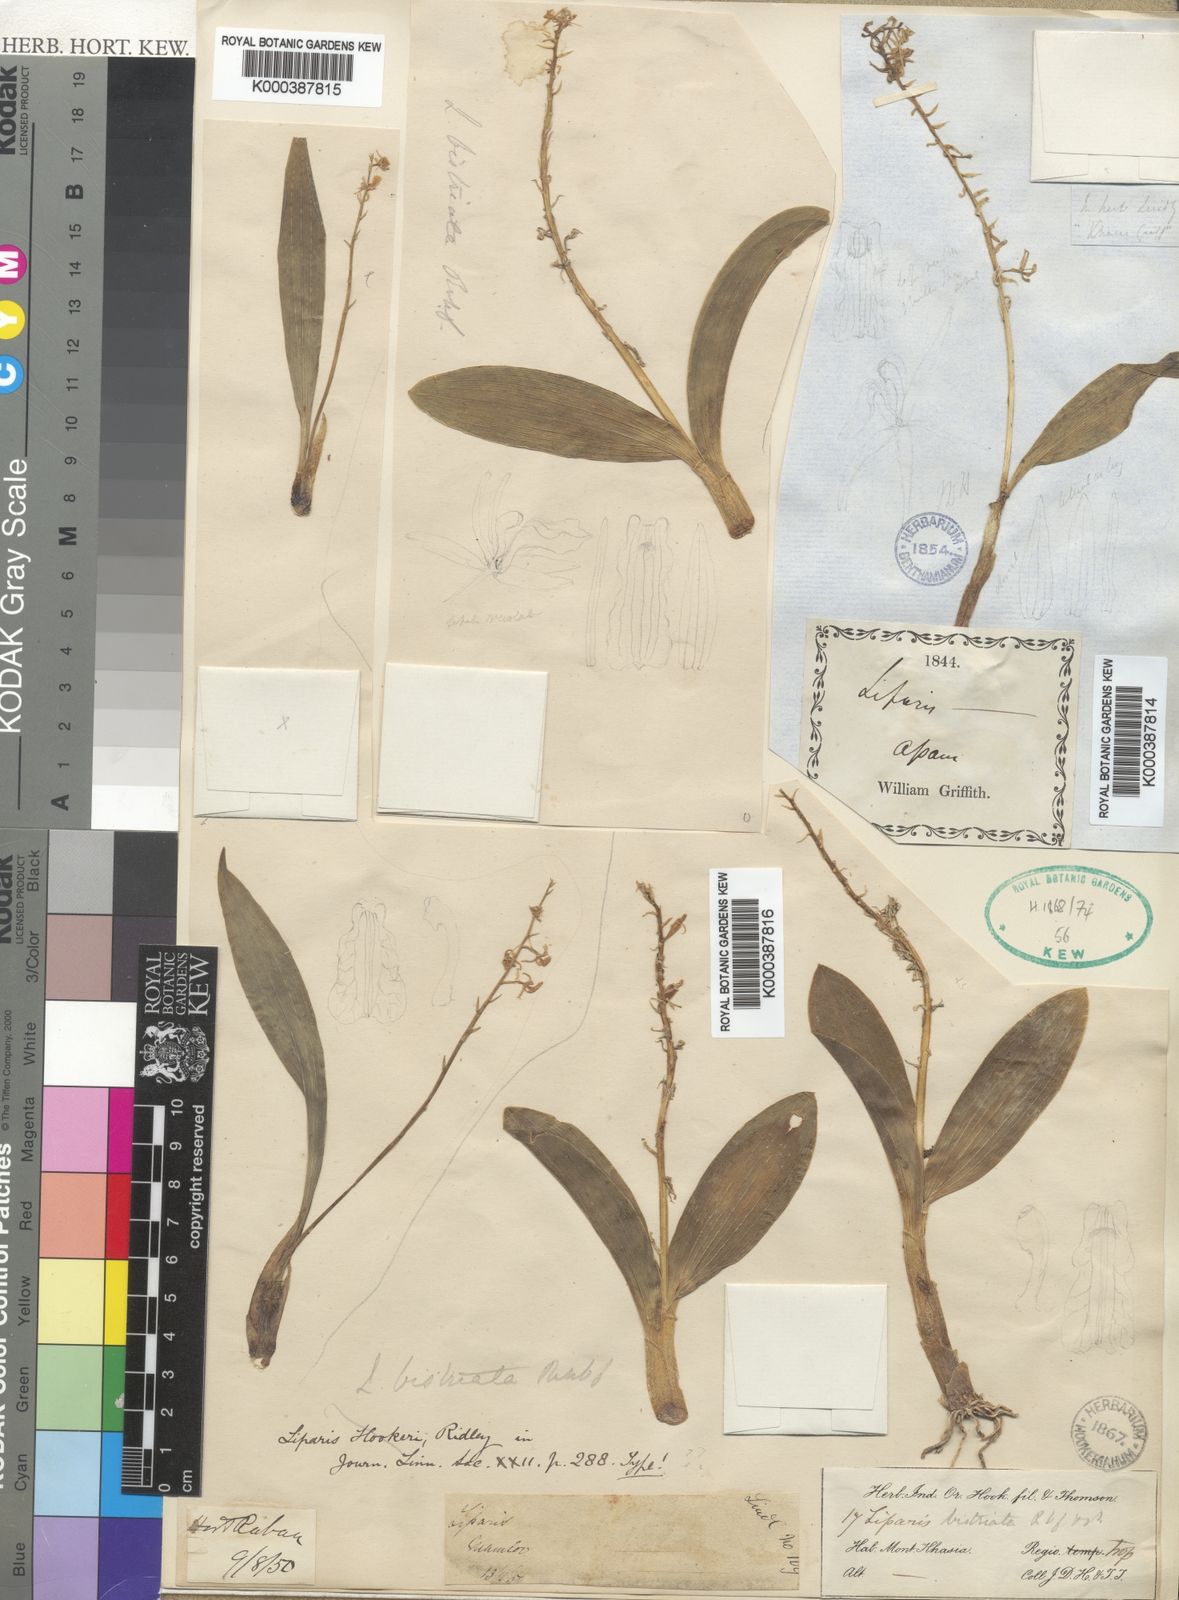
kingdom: Plantae
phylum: Tracheophyta
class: Liliopsida
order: Asparagales
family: Orchidaceae
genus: Liparis
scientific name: Liparis bistriata
